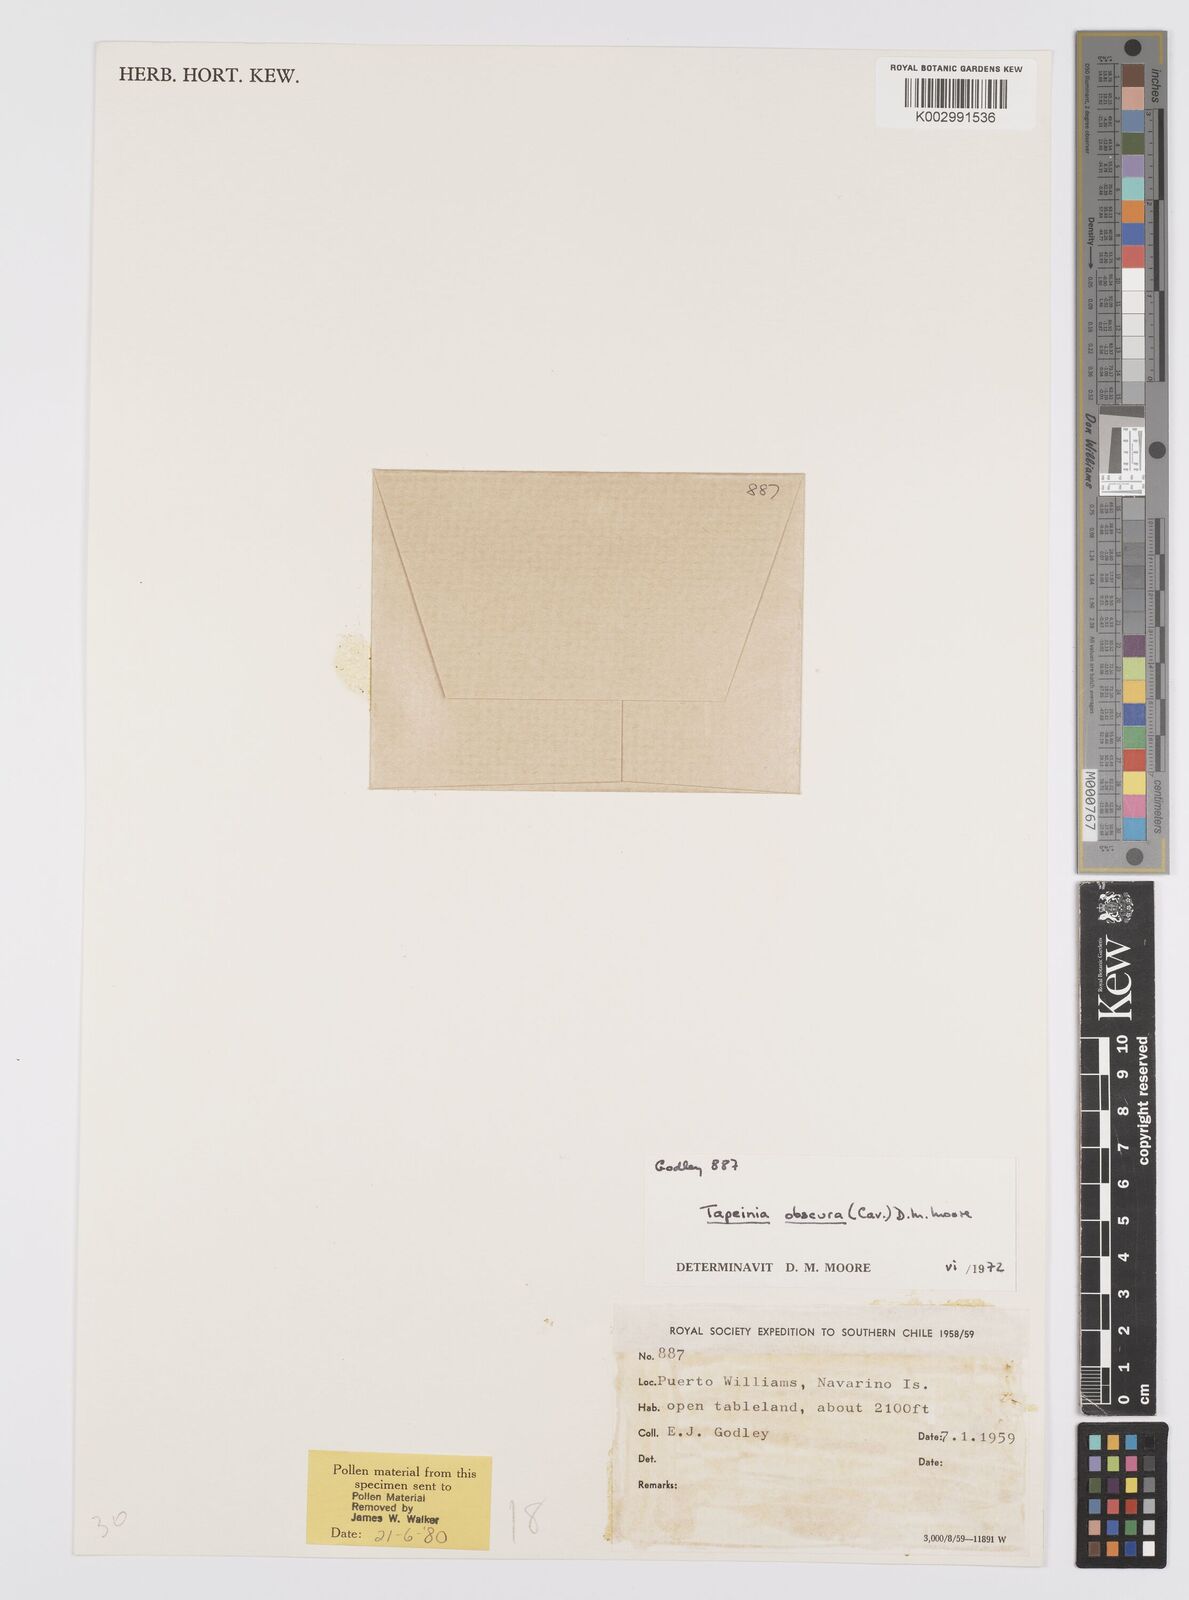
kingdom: Plantae
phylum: Tracheophyta
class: Liliopsida
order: Asparagales
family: Iridaceae
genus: Olsynium
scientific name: Olsynium obscurum
